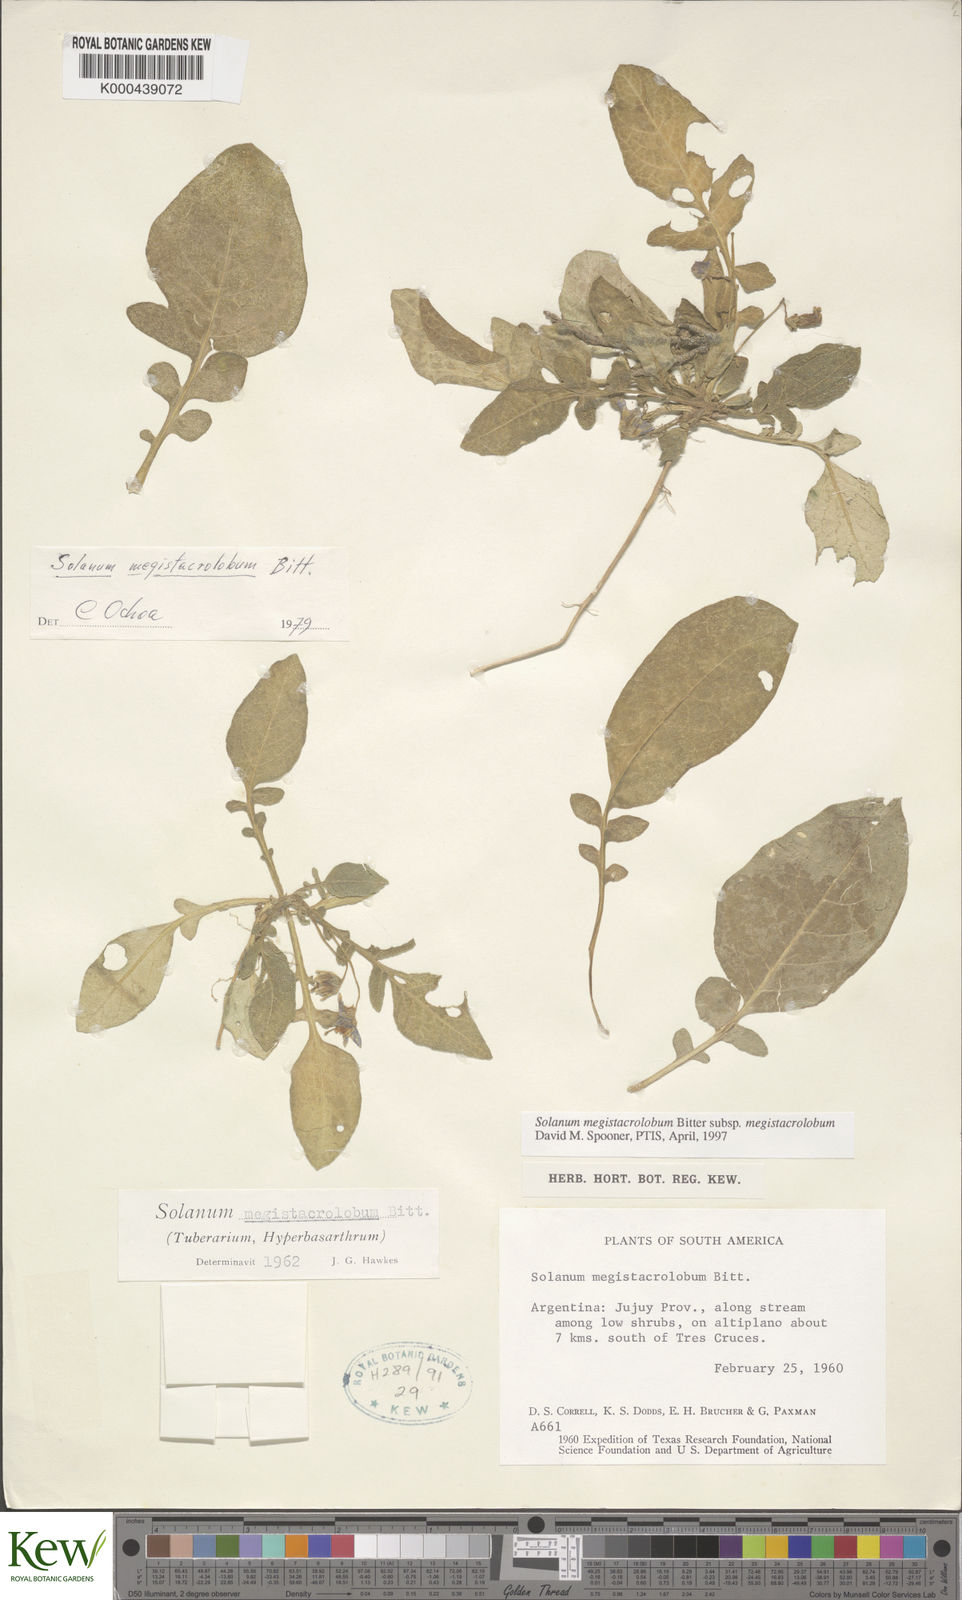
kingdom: Plantae
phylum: Tracheophyta
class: Magnoliopsida
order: Solanales
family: Solanaceae
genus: Solanum
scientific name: Solanum boliviense
